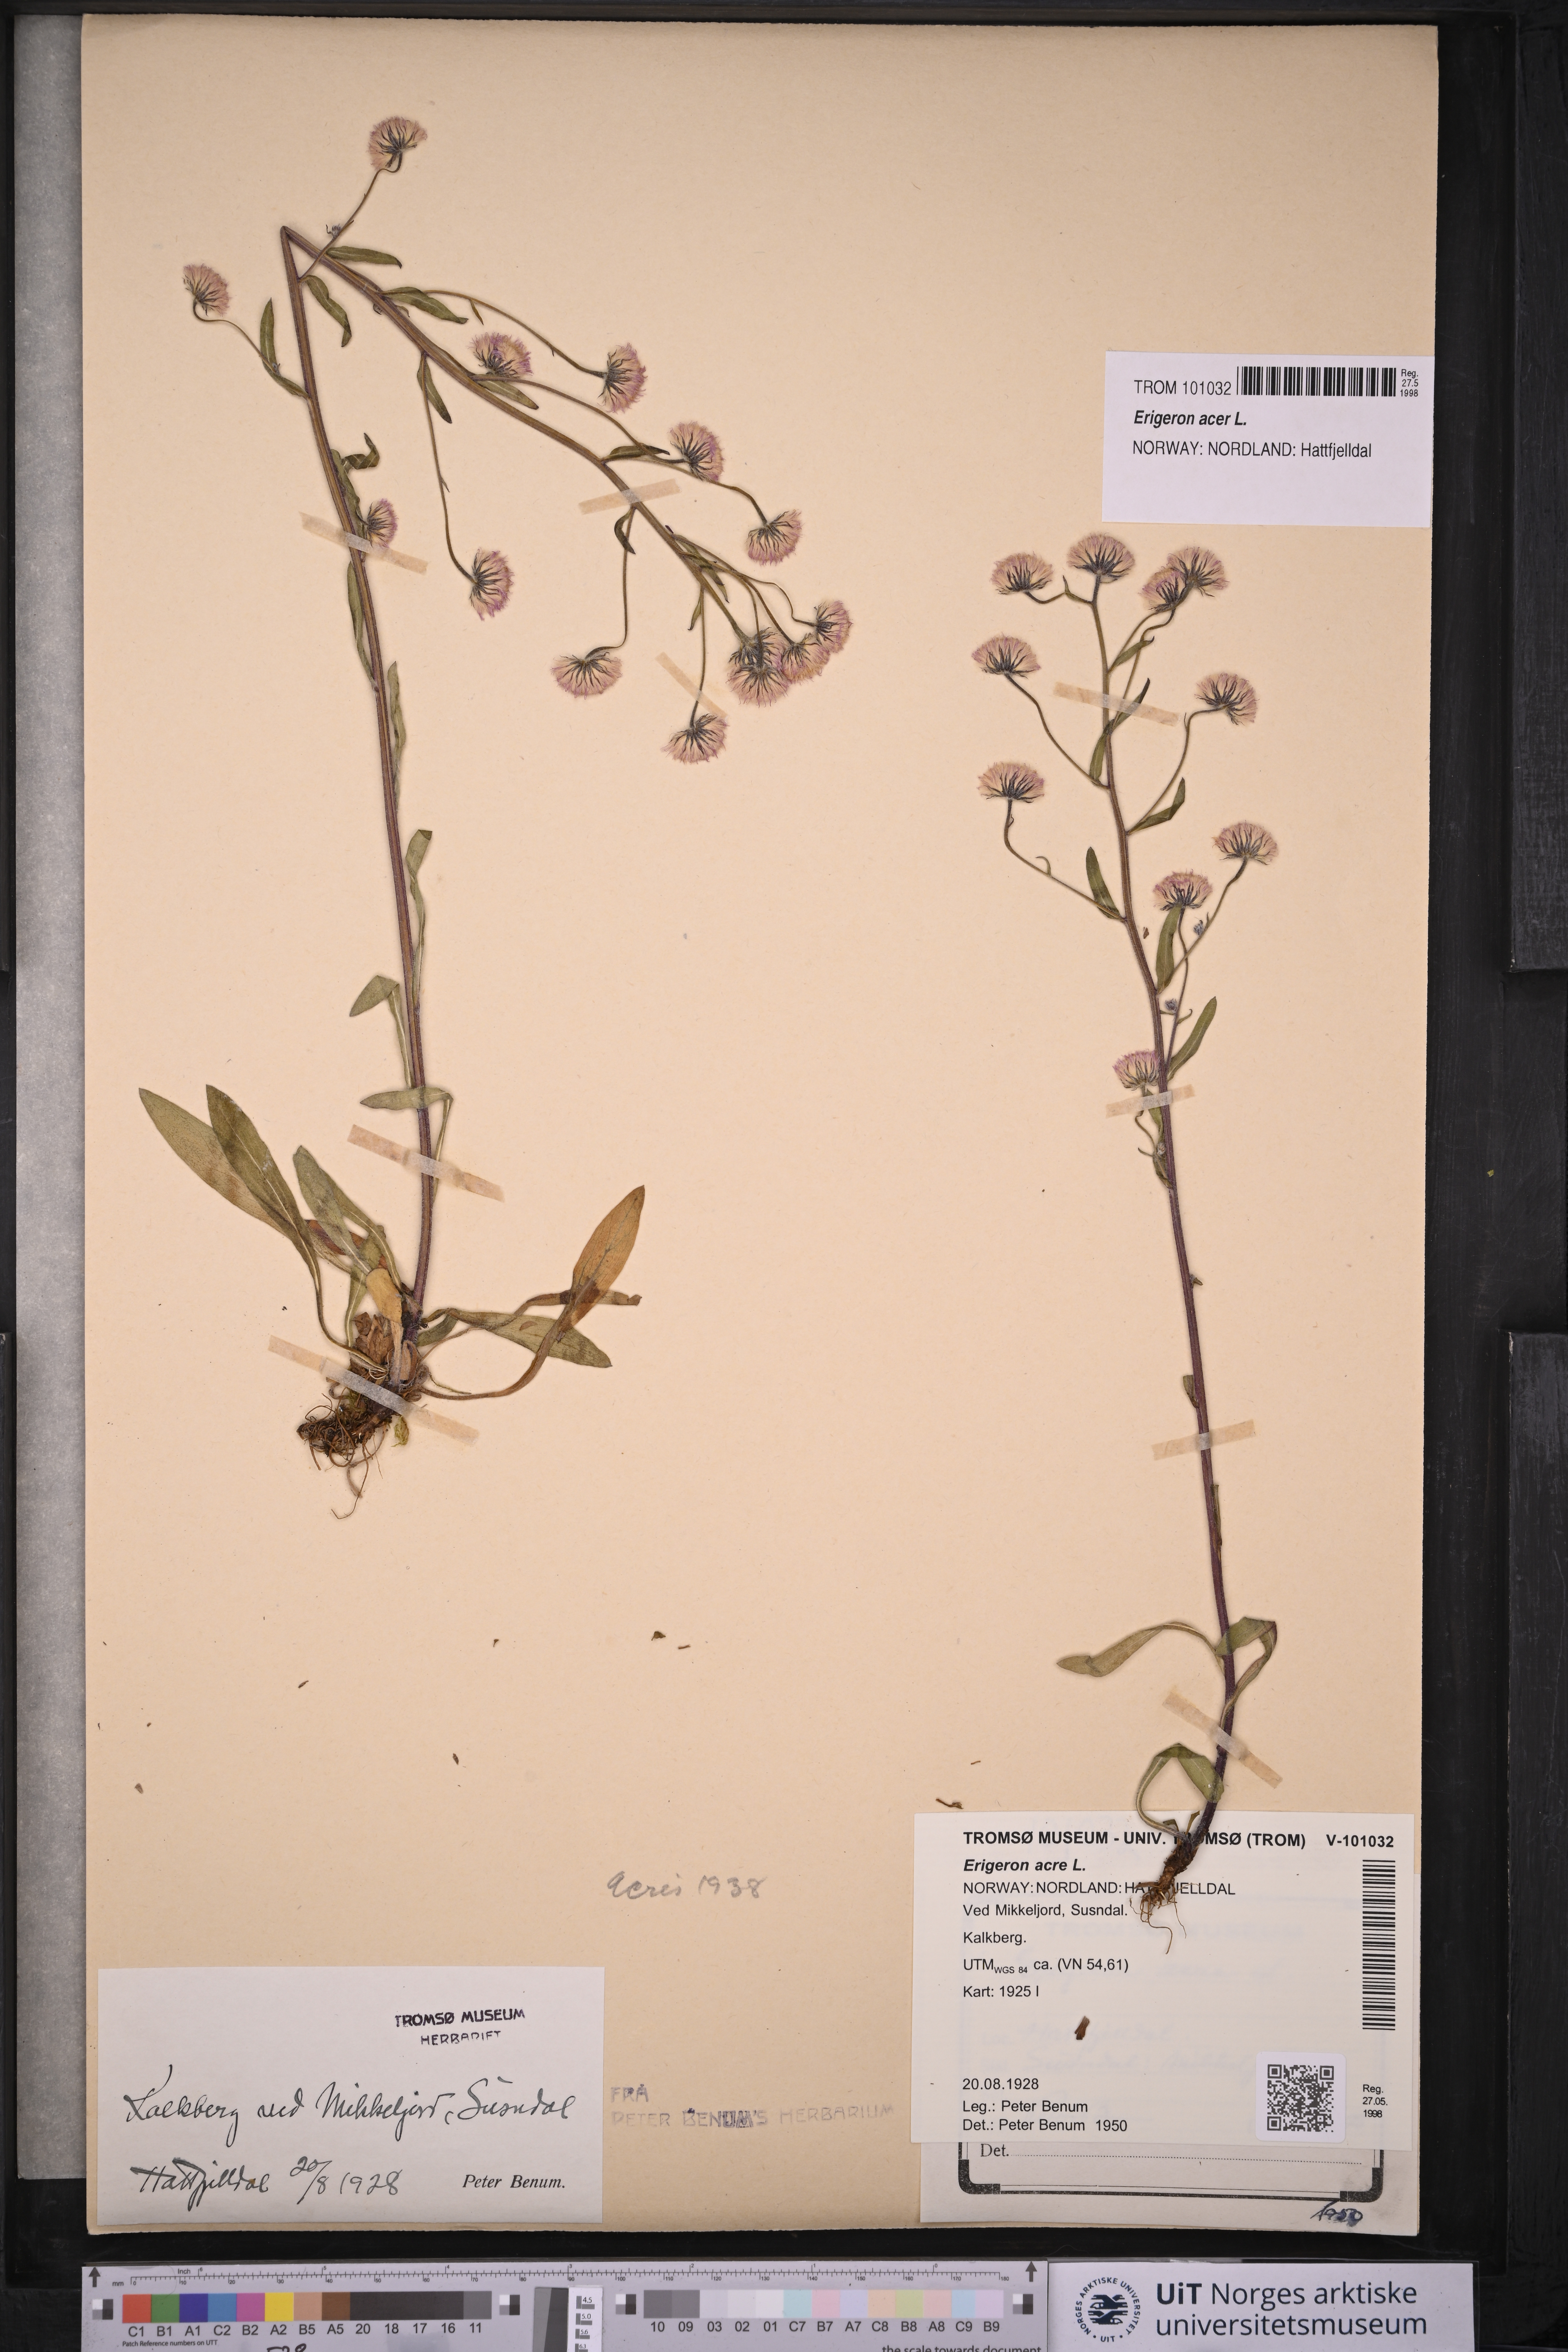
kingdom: Plantae
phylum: Tracheophyta
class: Magnoliopsida
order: Asterales
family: Asteraceae
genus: Erigeron
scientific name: Erigeron acris
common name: Blue fleabane
